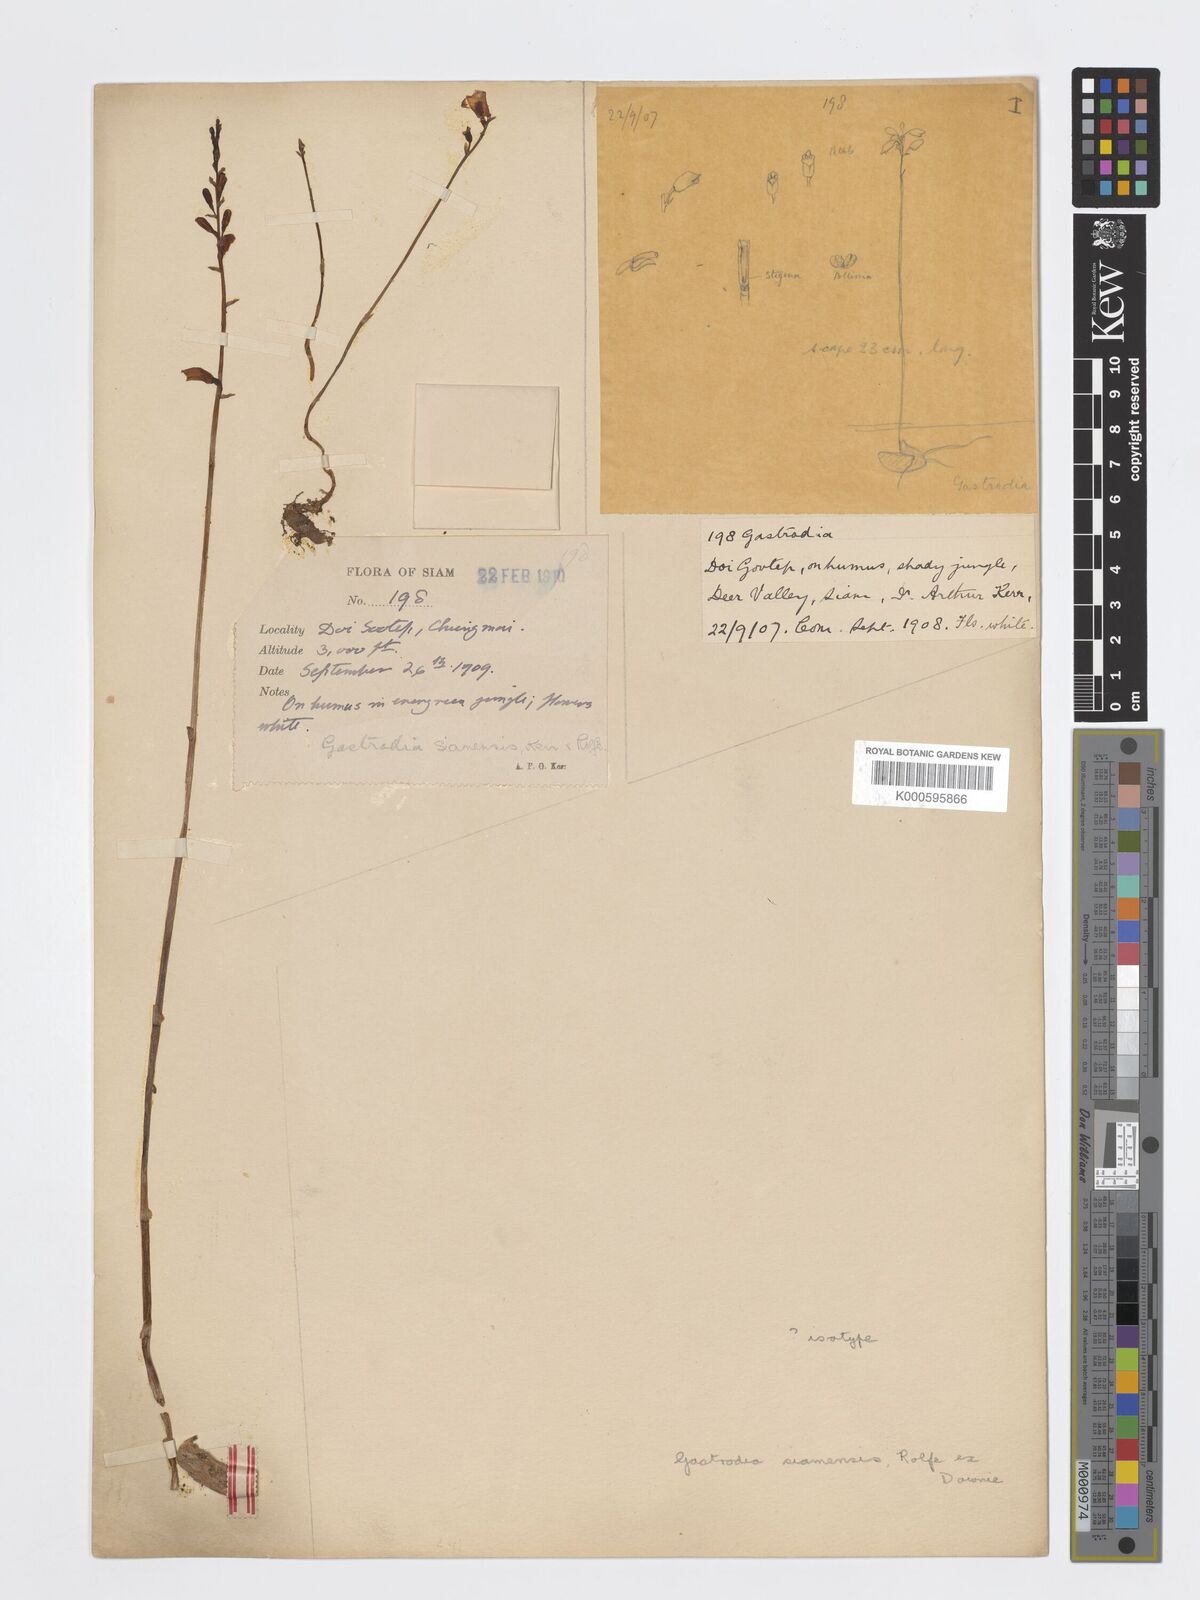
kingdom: Plantae
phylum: Tracheophyta
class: Liliopsida
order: Asparagales
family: Orchidaceae
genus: Gastrodia
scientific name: Gastrodia exilis
